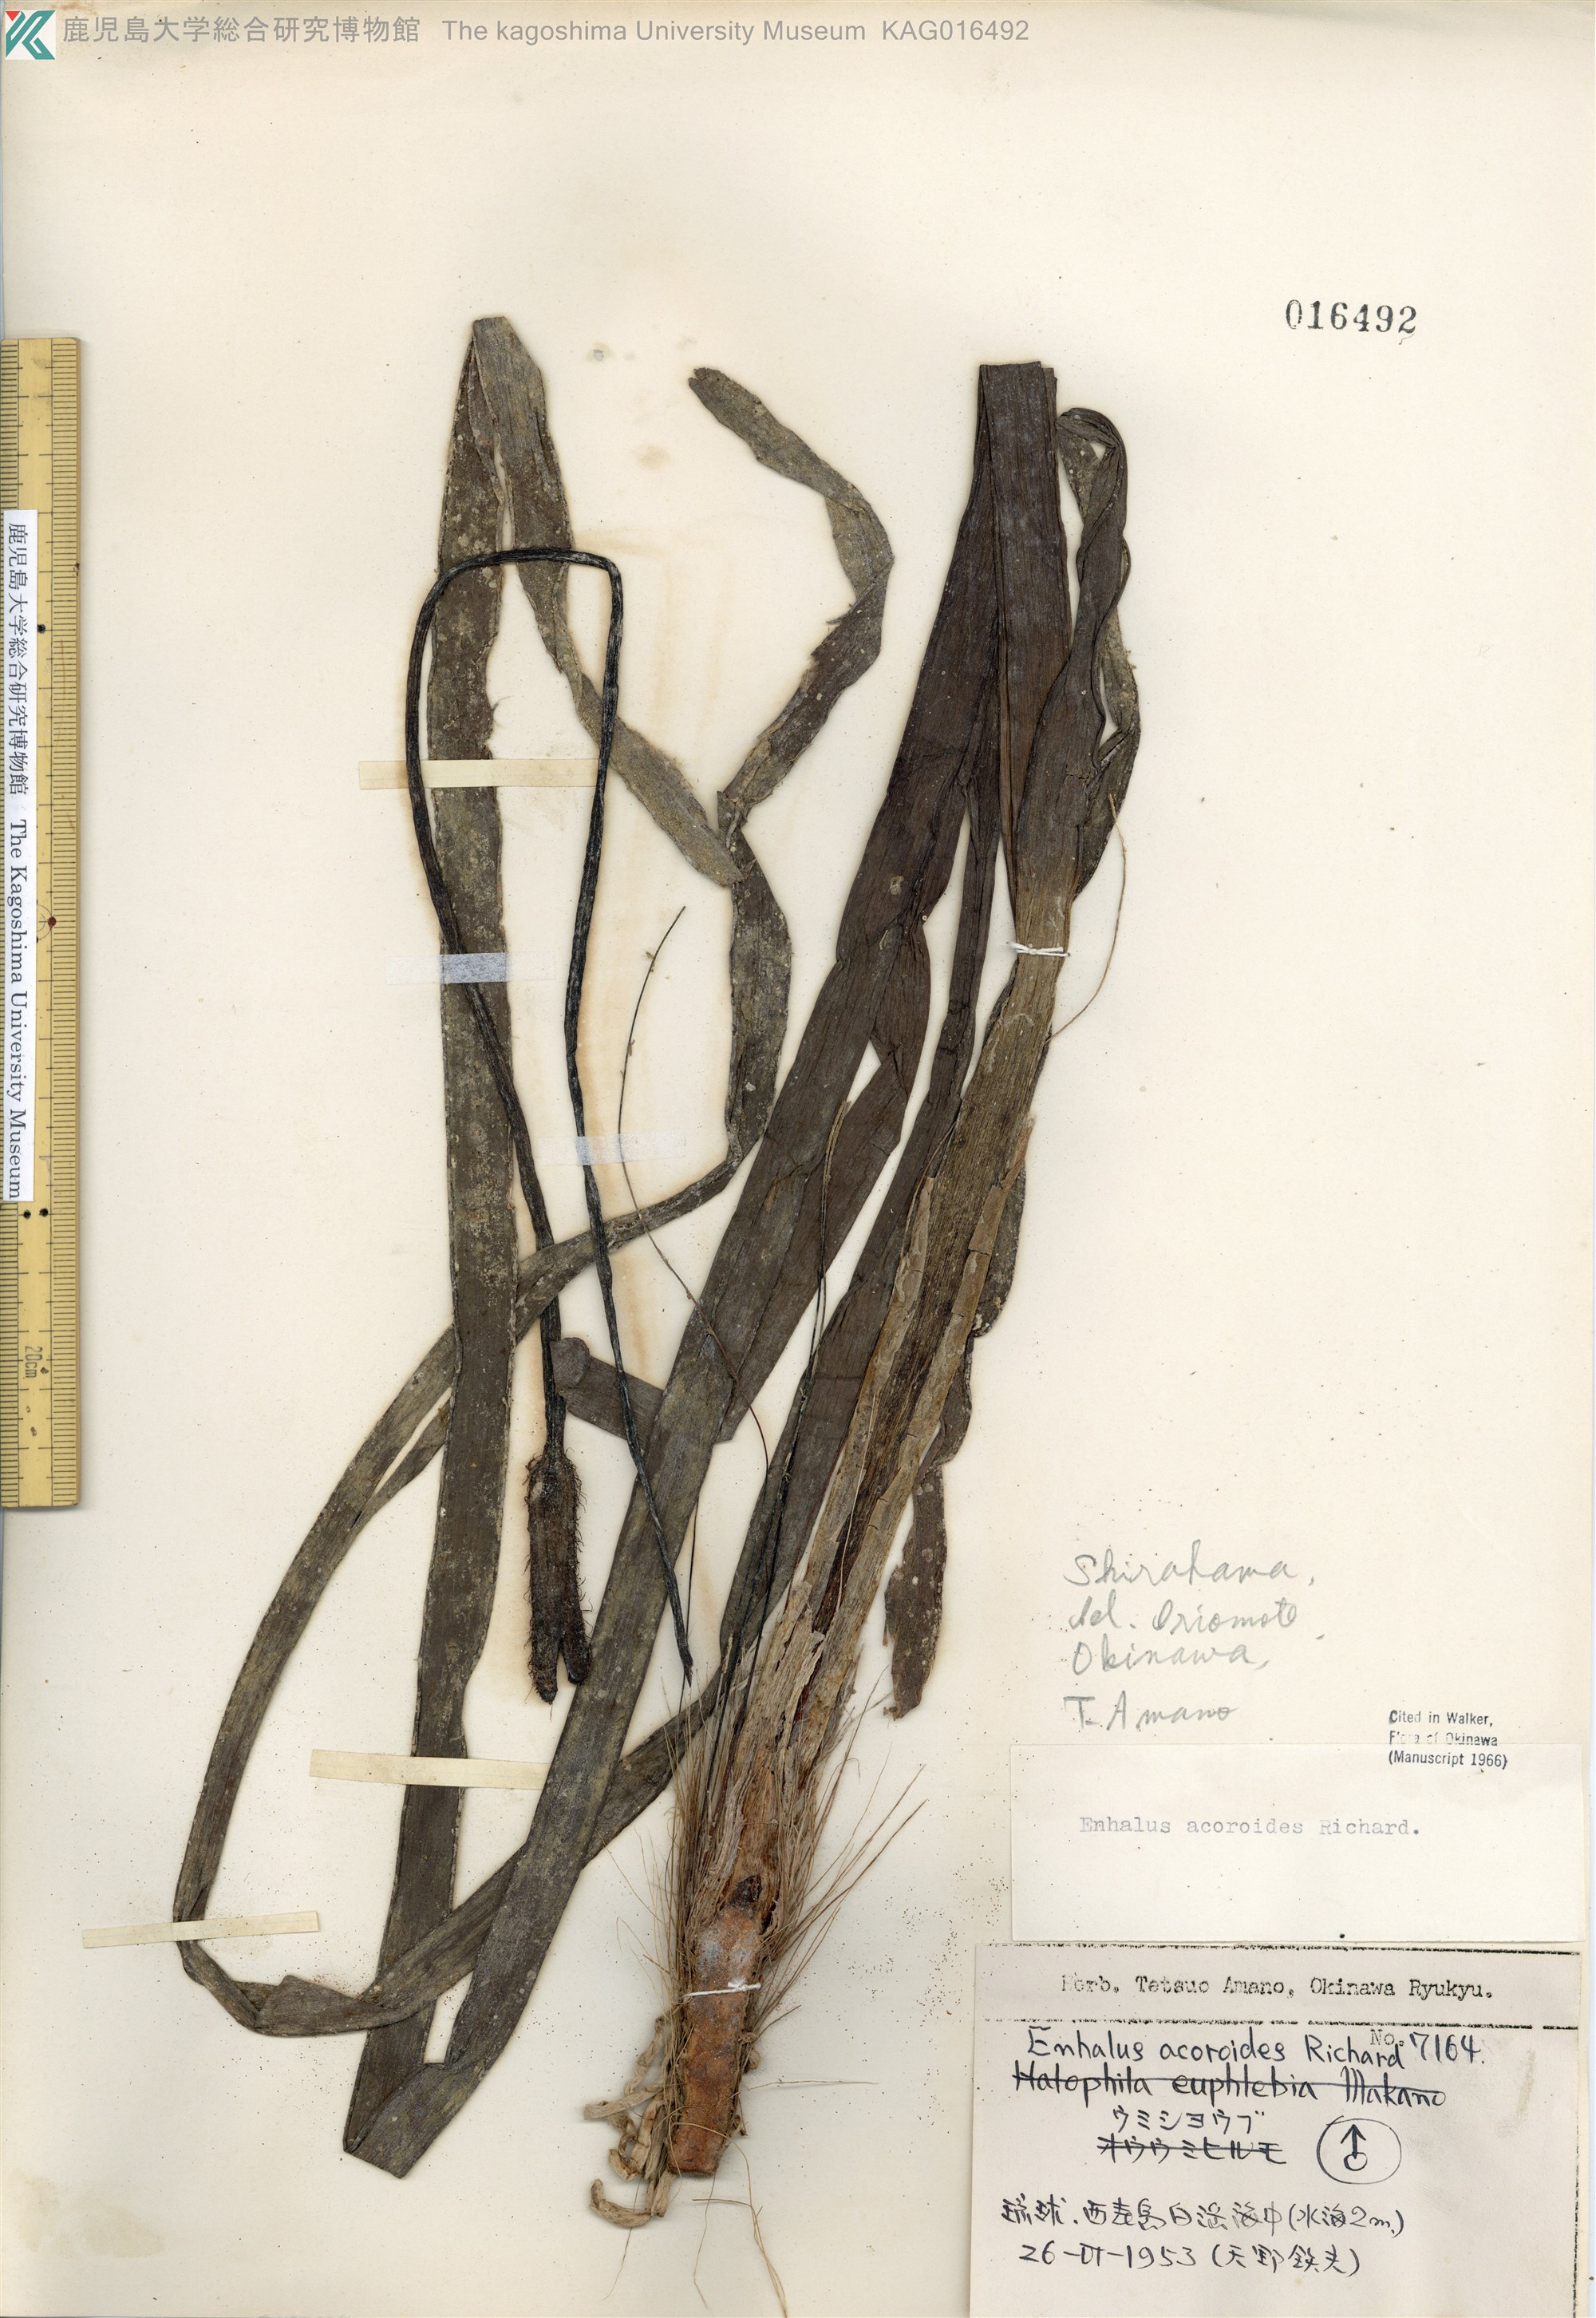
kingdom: Plantae
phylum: Tracheophyta
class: Liliopsida
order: Alismatales
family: Hydrocharitaceae
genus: Enhalus
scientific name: Enhalus acoroides
